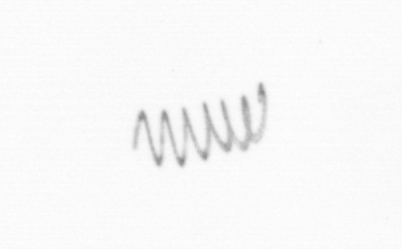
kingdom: Chromista
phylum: Ochrophyta
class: Bacillariophyceae
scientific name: Bacillariophyceae
